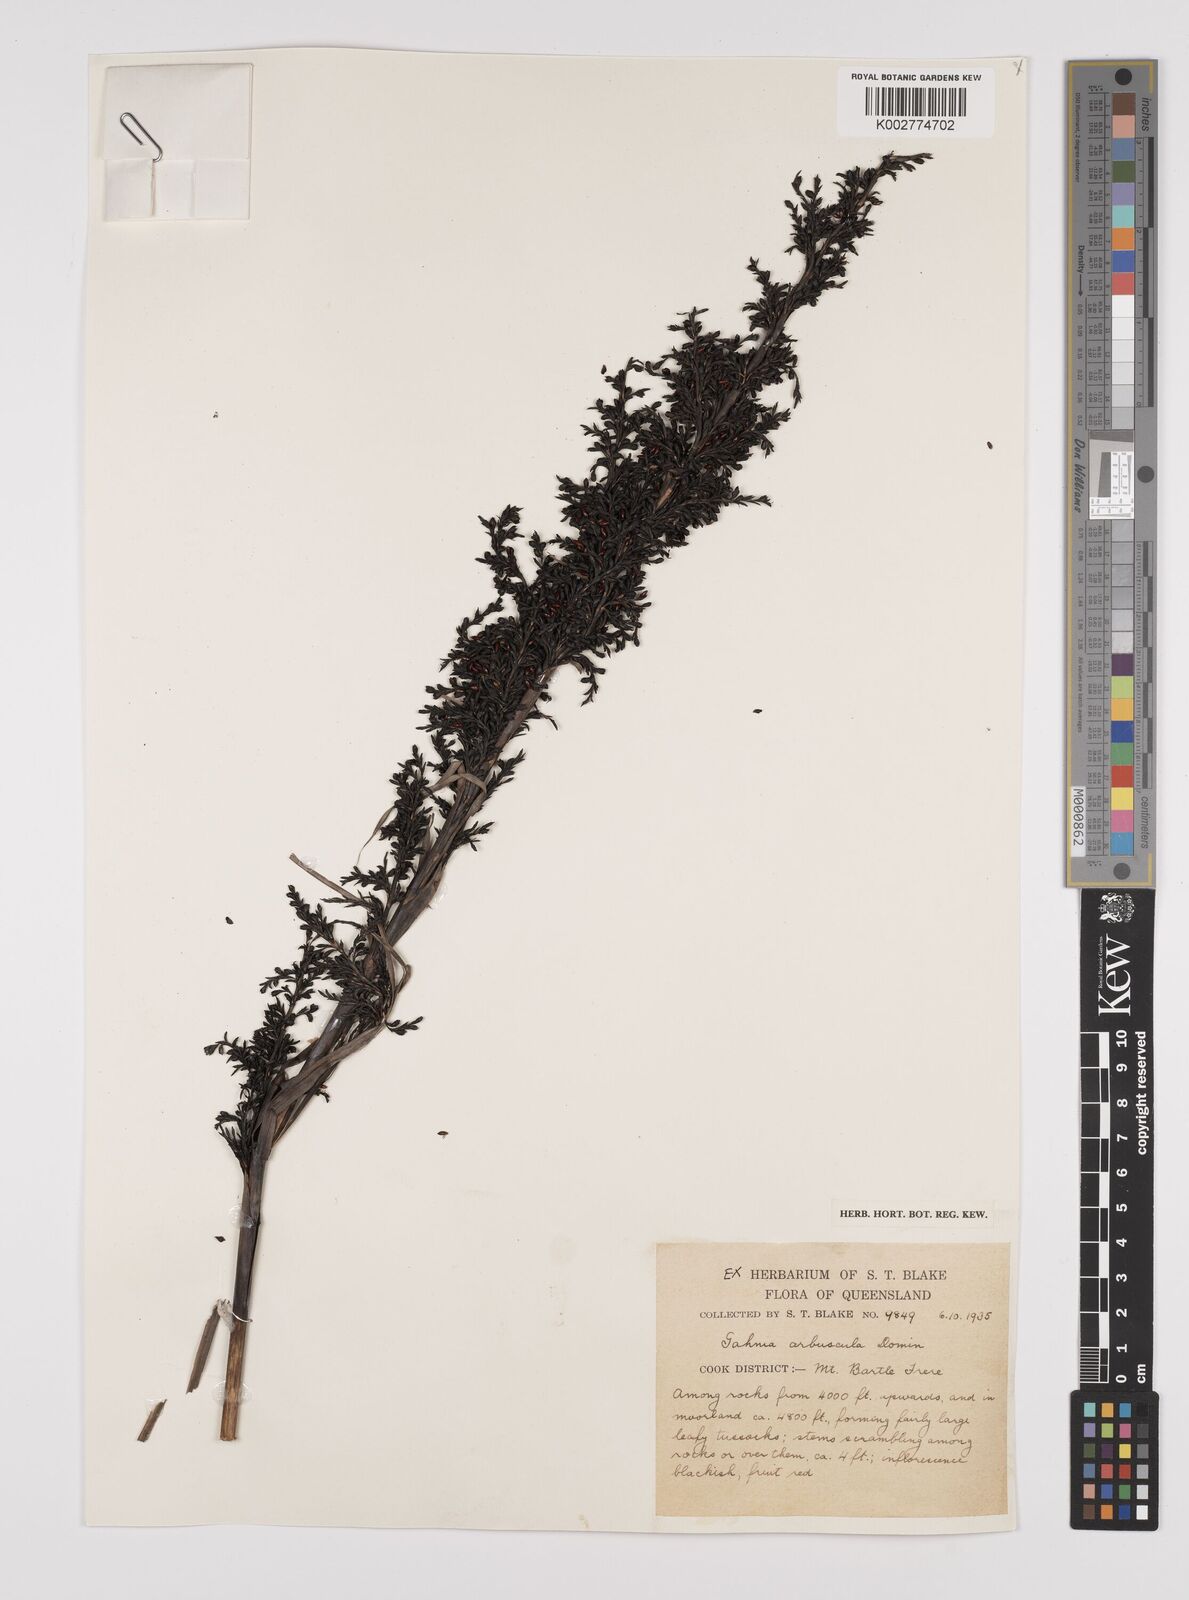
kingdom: Plantae
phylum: Tracheophyta
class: Liliopsida
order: Poales
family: Cyperaceae
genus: Gahnia
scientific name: Gahnia sieberiana
